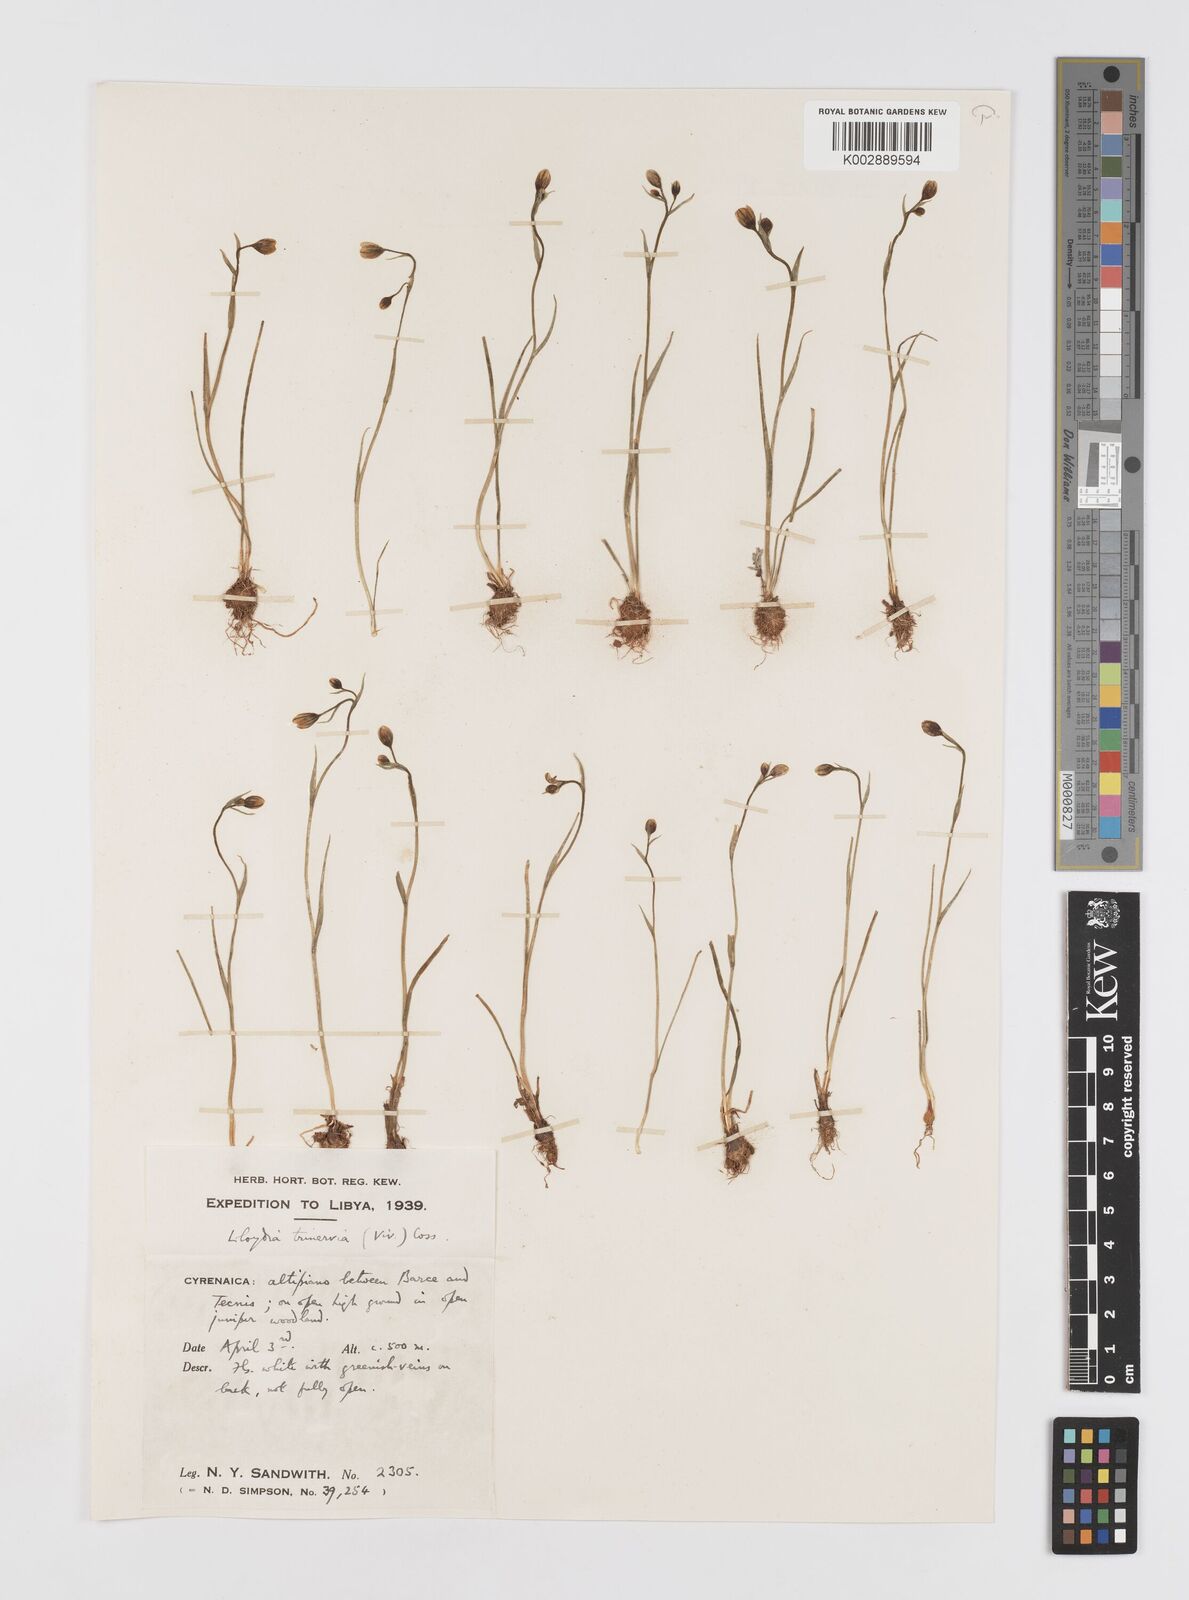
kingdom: Plantae
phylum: Tracheophyta
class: Liliopsida
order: Liliales
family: Liliaceae
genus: Gagea
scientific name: Gagea trinervia
